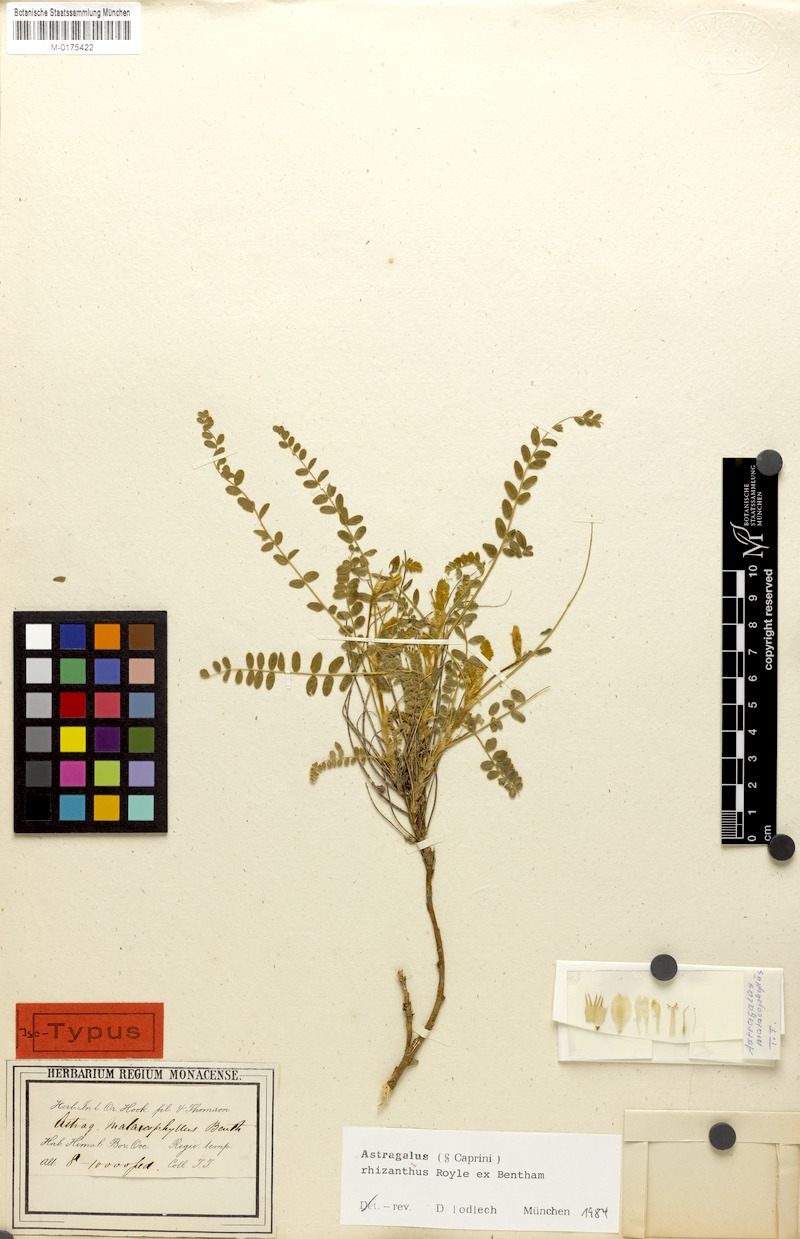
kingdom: Plantae
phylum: Tracheophyta
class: Magnoliopsida
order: Fabales
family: Fabaceae
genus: Astragalus
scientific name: Astragalus rhizanthus
